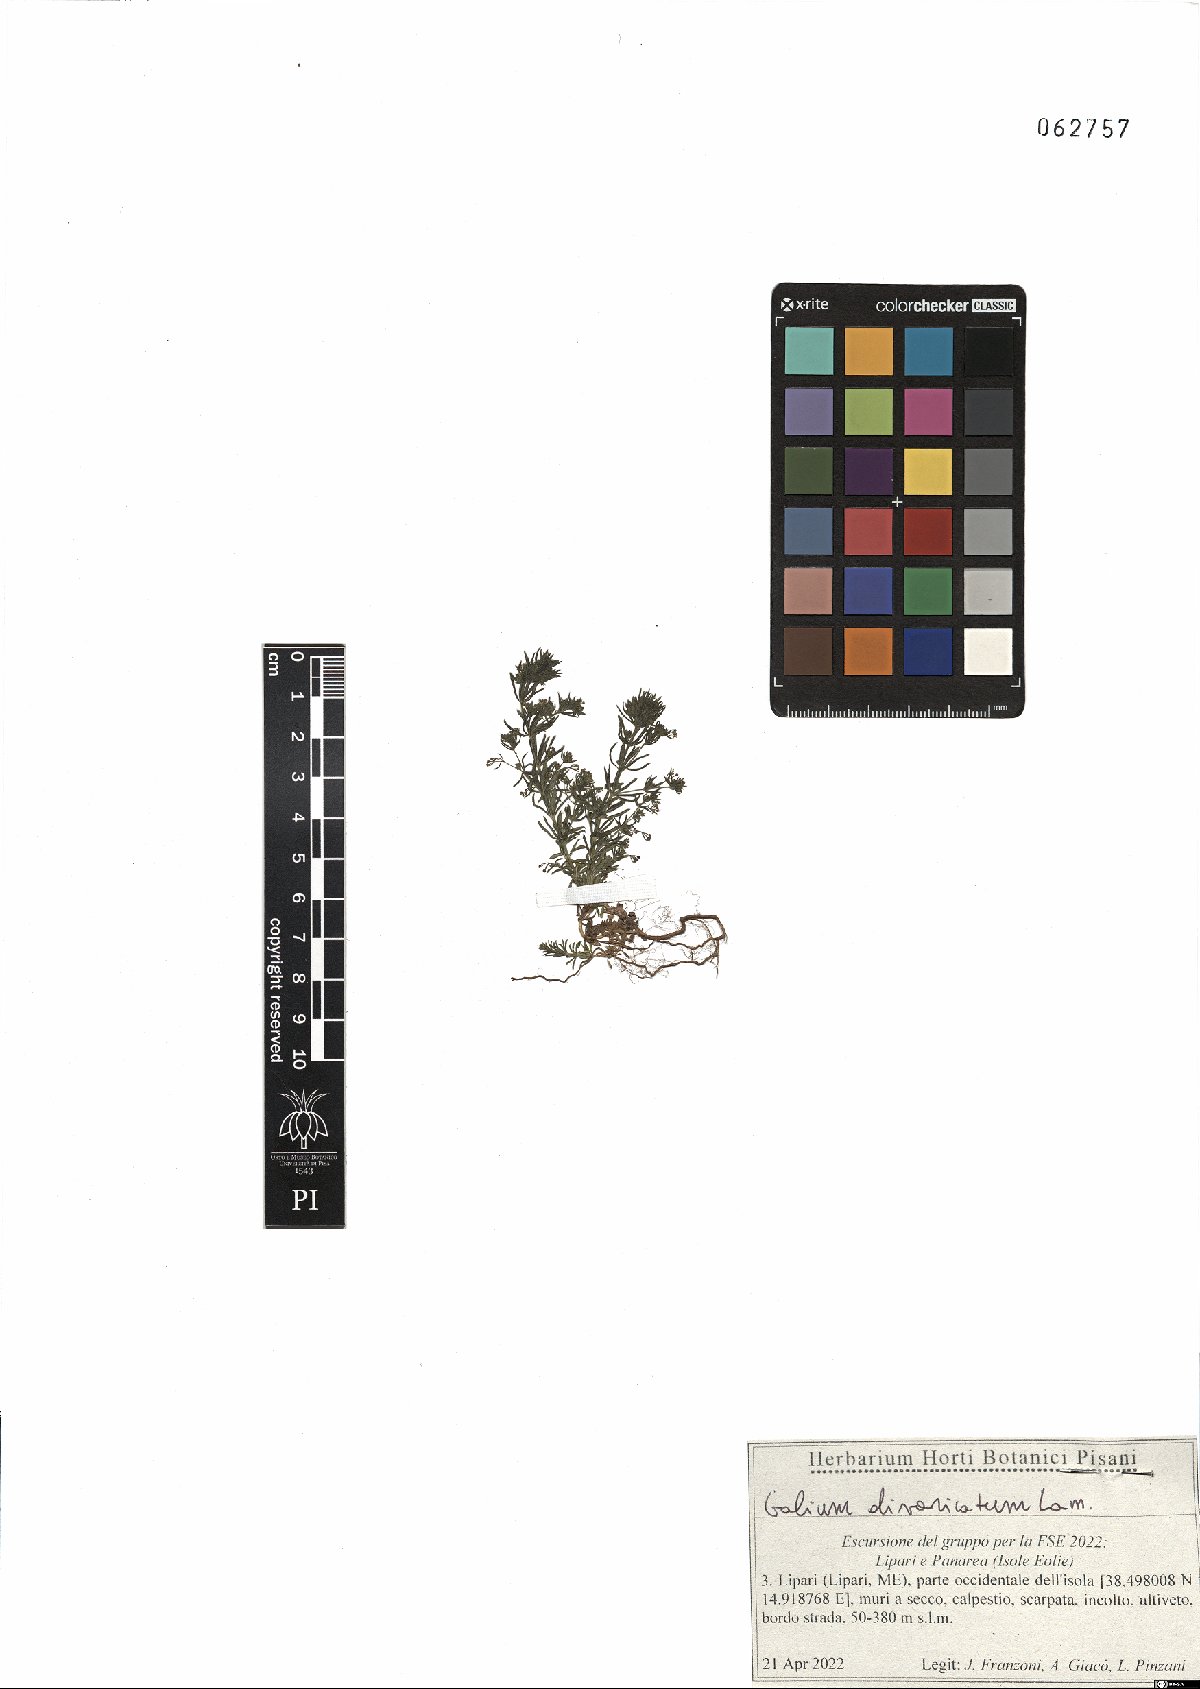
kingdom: Plantae
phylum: Tracheophyta
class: Magnoliopsida
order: Gentianales
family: Rubiaceae
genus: Galium
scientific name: Galium divaricatum
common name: Lamarck's bedstraw
